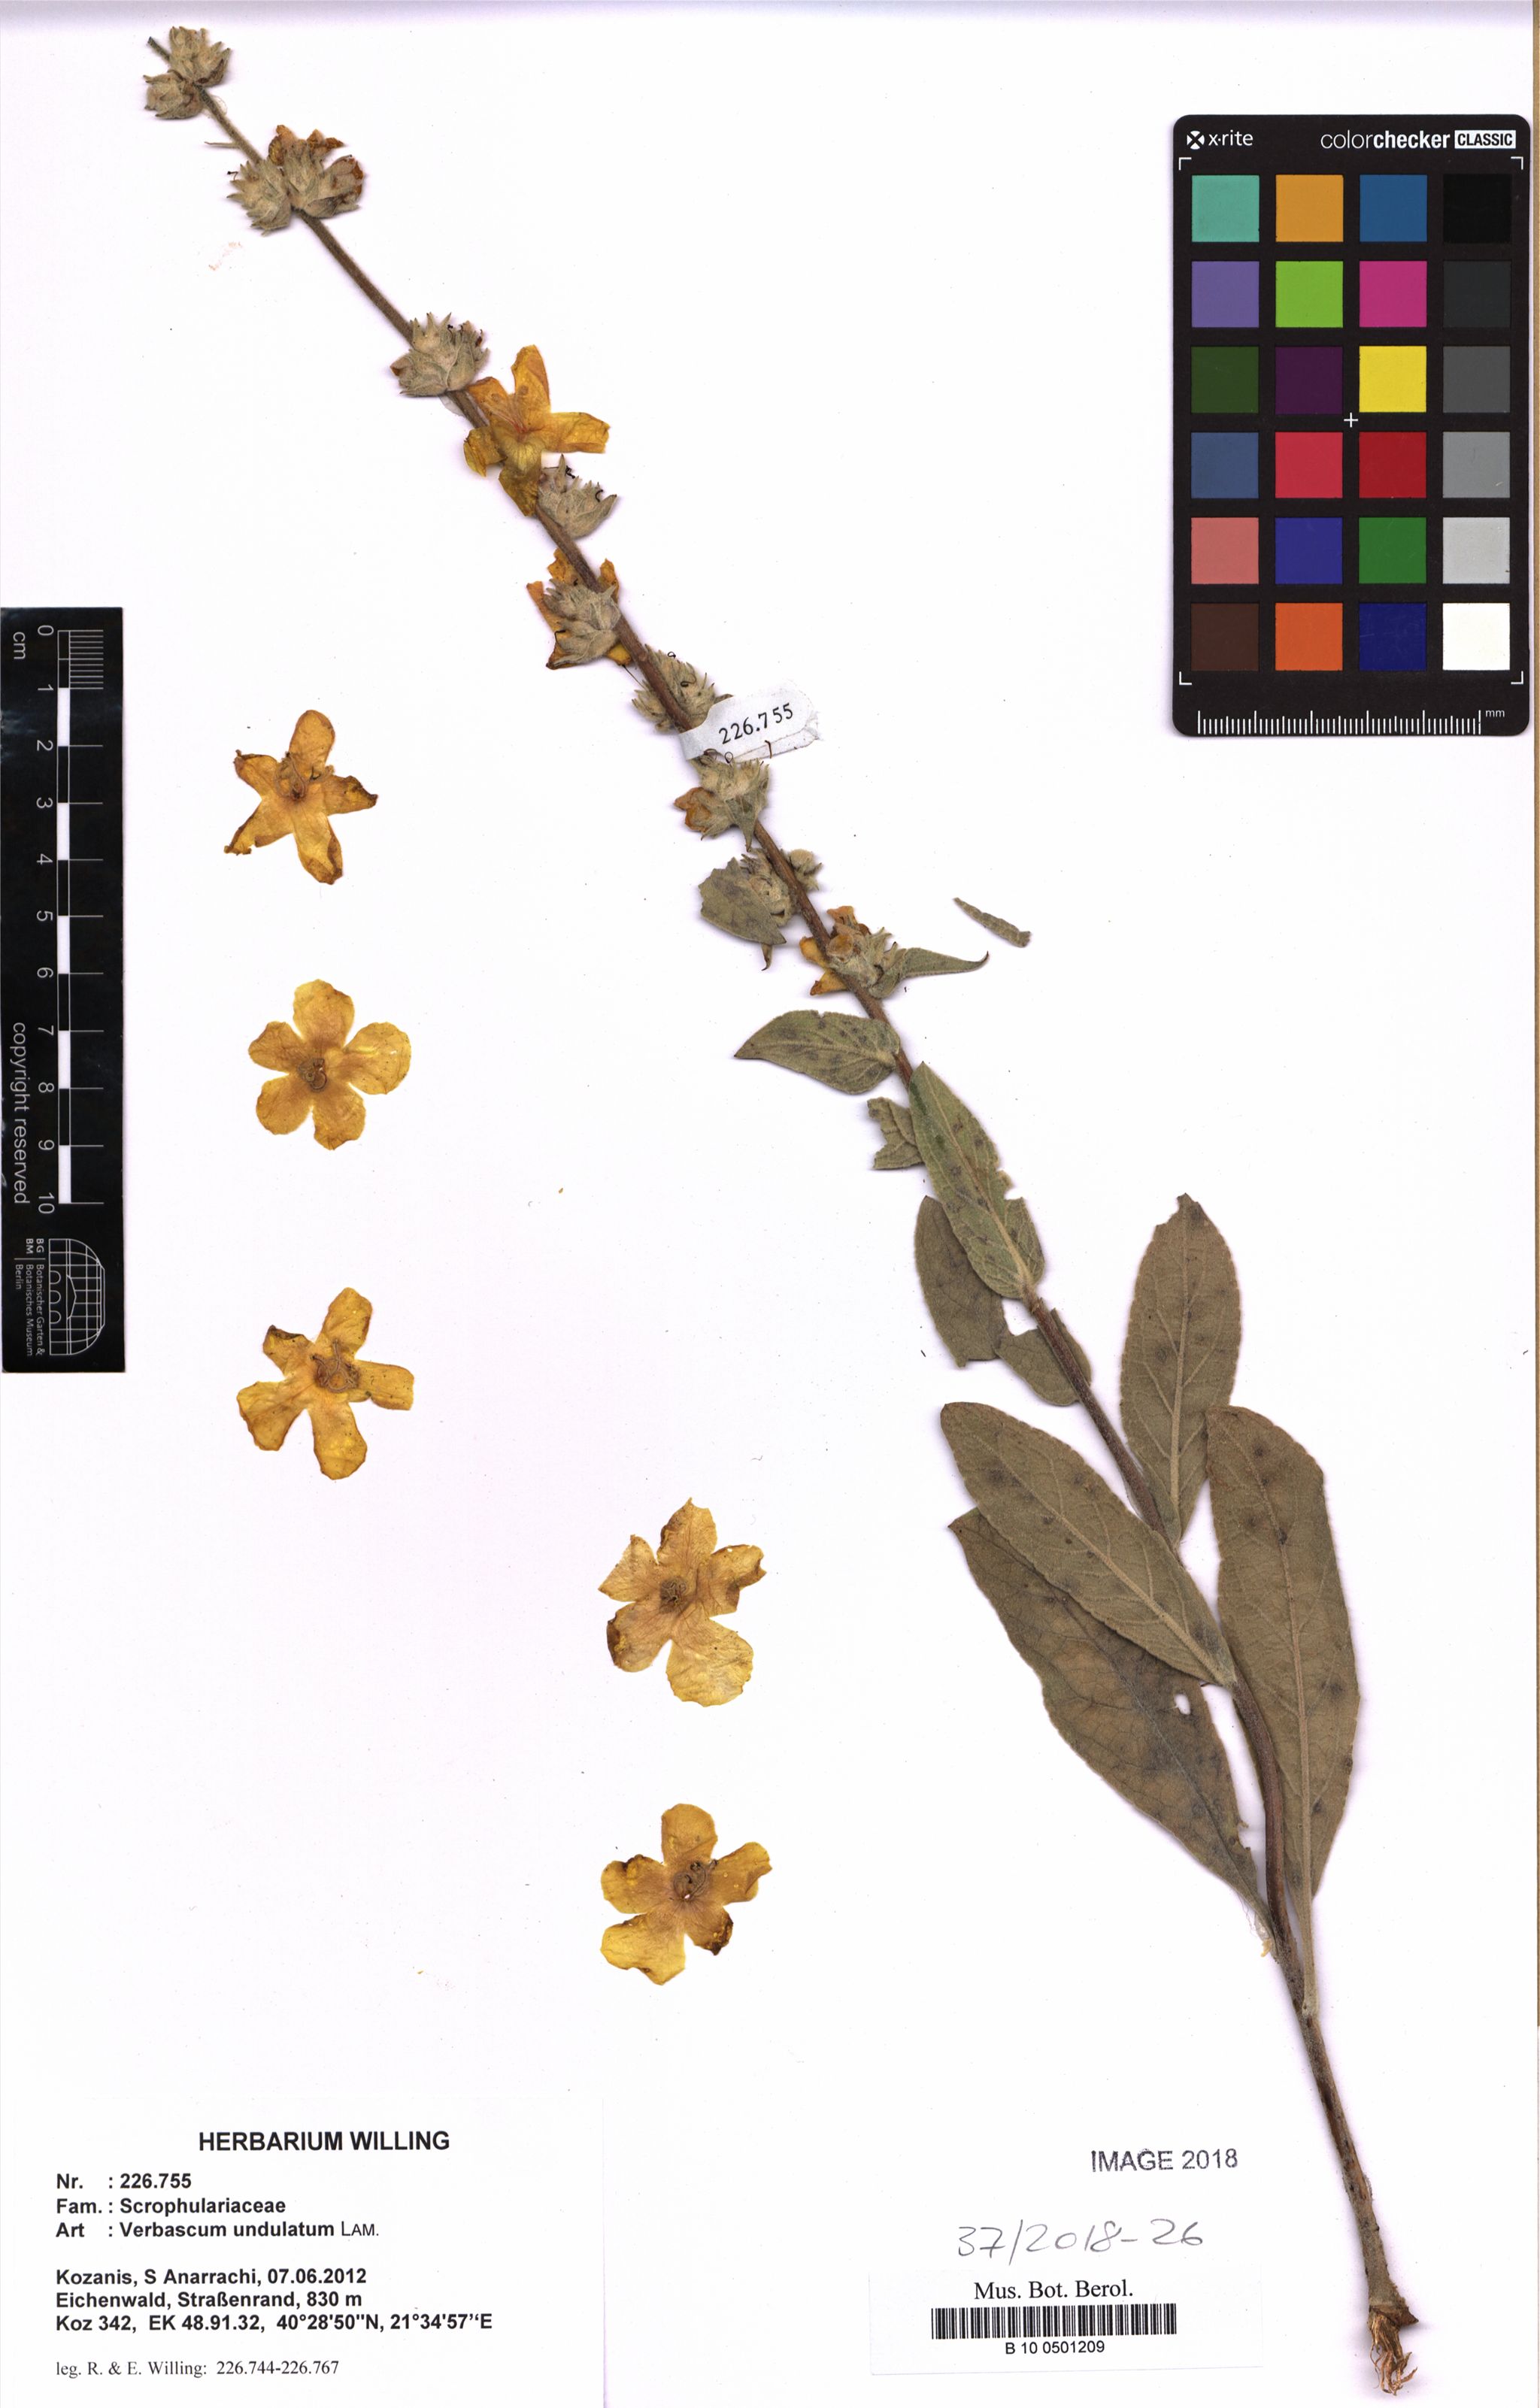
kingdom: Plantae
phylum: Tracheophyta
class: Magnoliopsida
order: Lamiales
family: Scrophulariaceae
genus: Verbascum
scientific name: Verbascum undulatum
